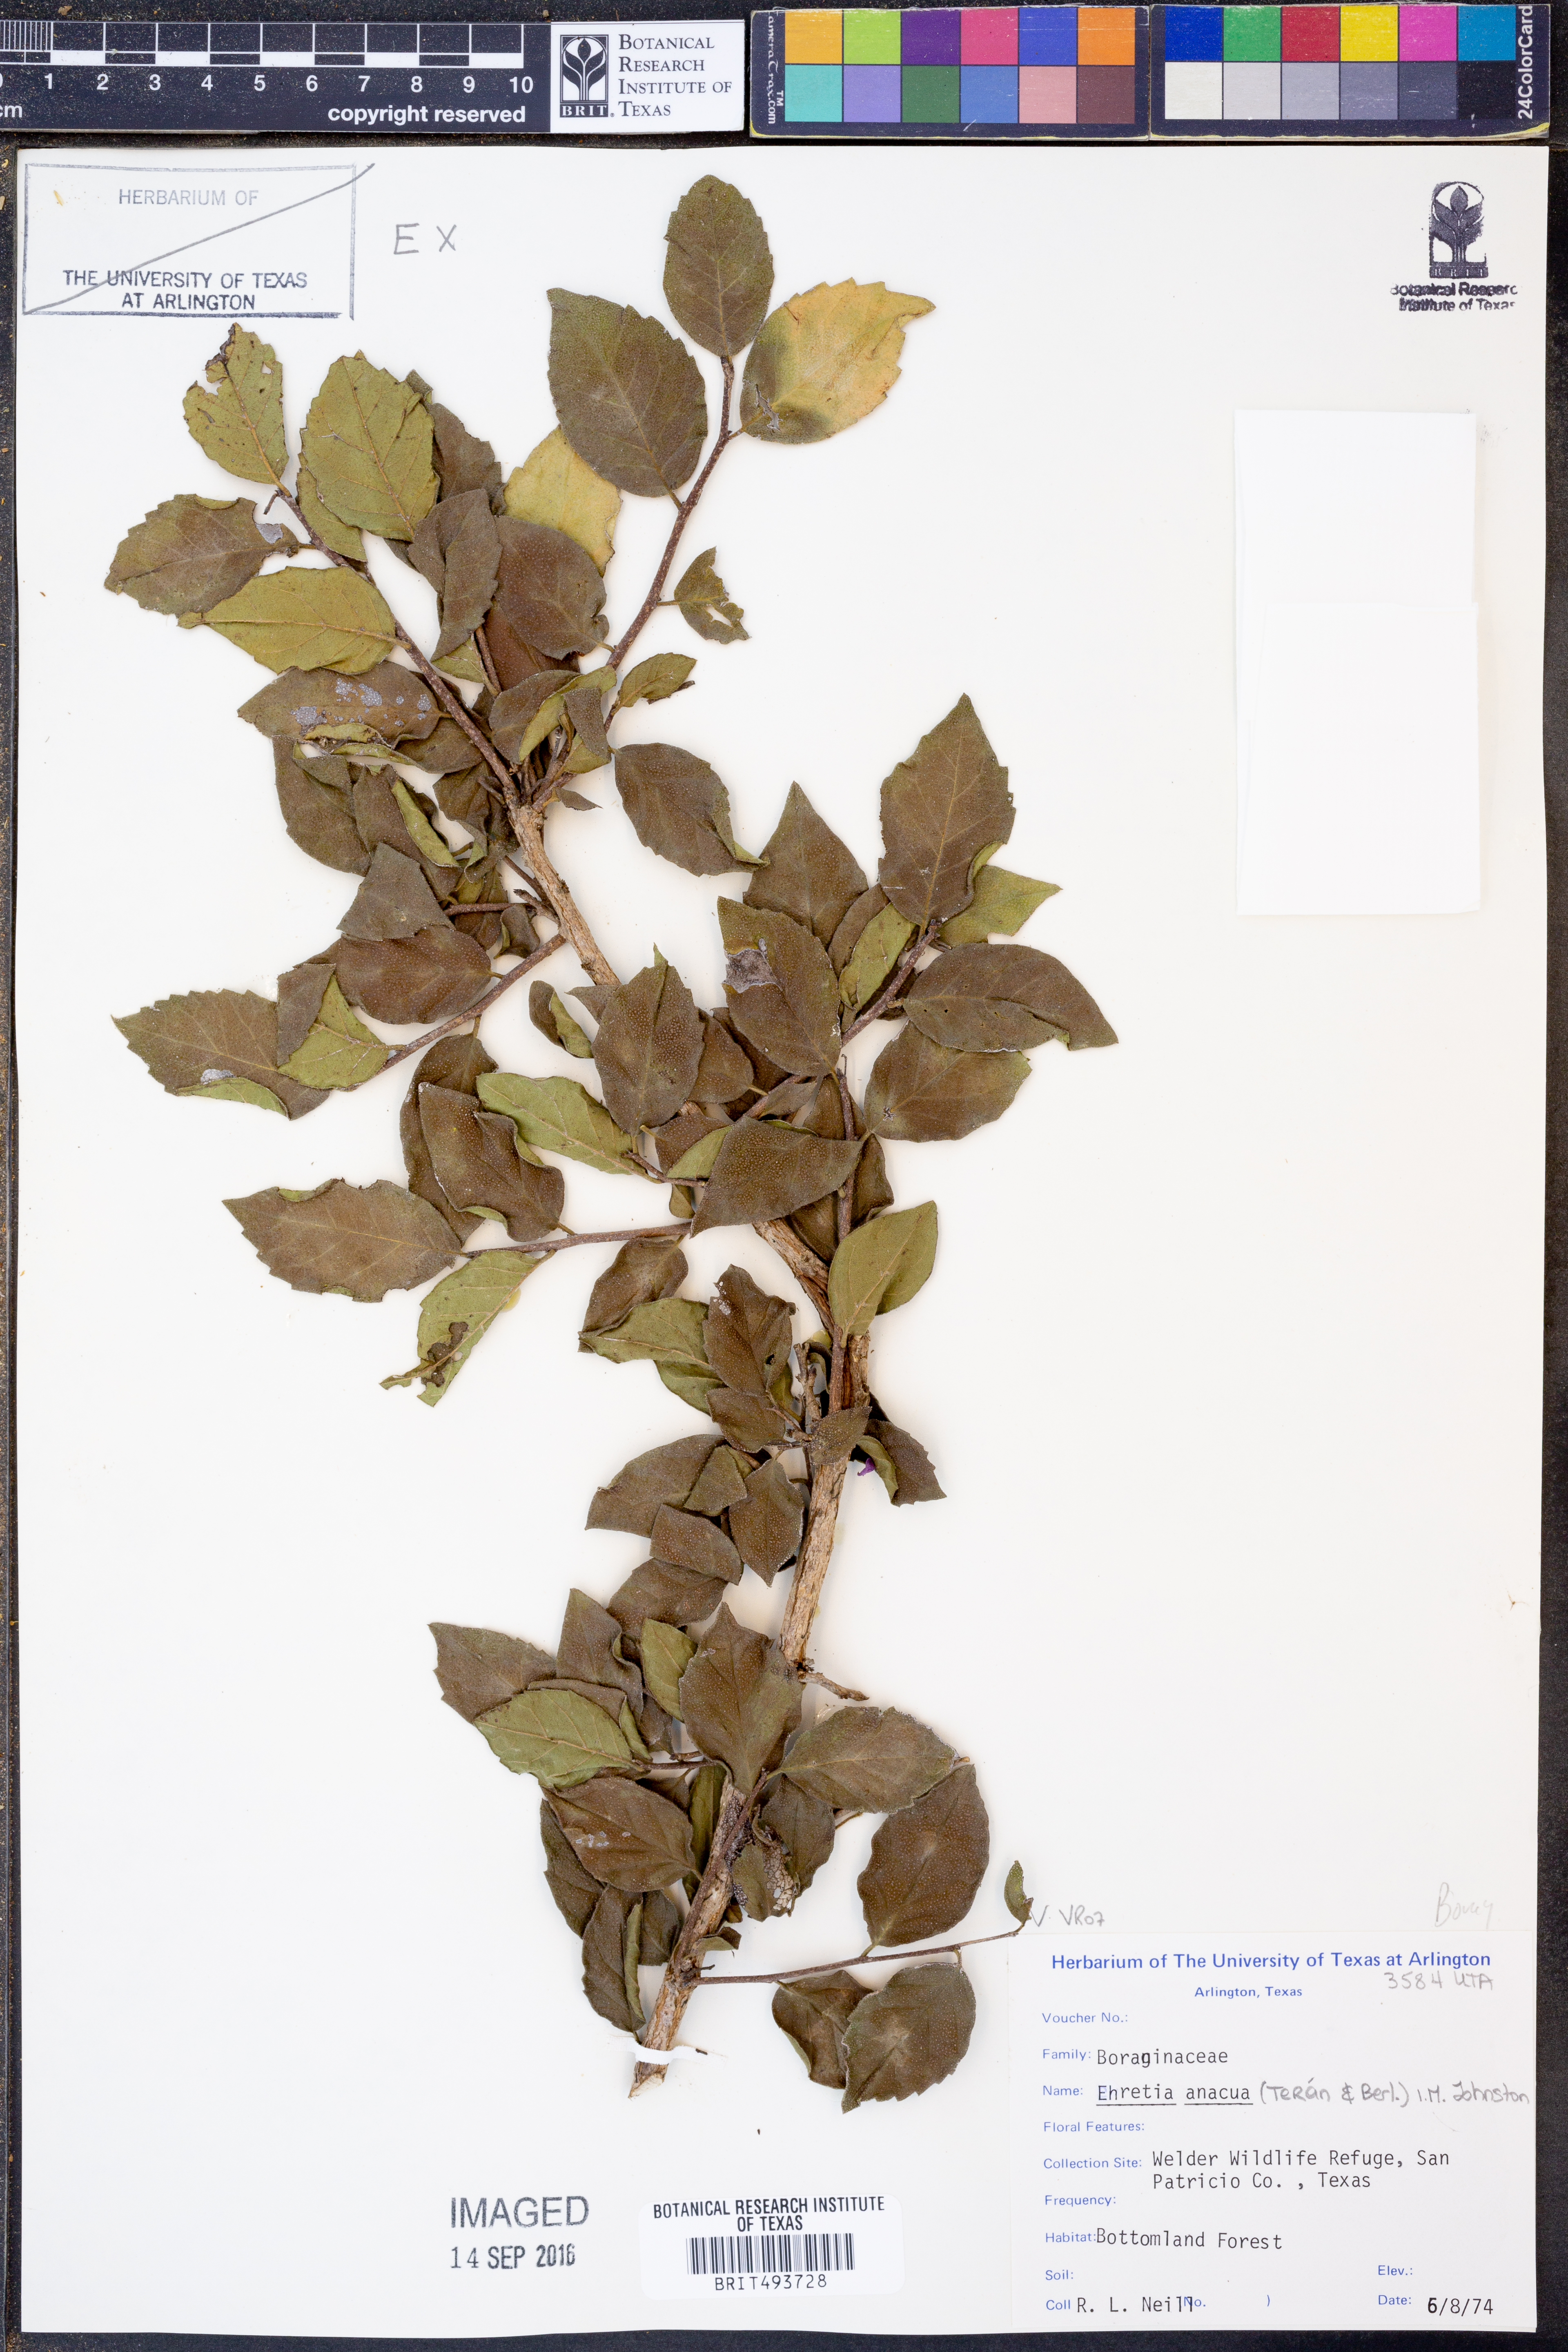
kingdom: Plantae
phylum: Tracheophyta
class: Magnoliopsida
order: Boraginales
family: Ehretiaceae
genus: Ehretia
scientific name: Ehretia anacua
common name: Sugarberry
